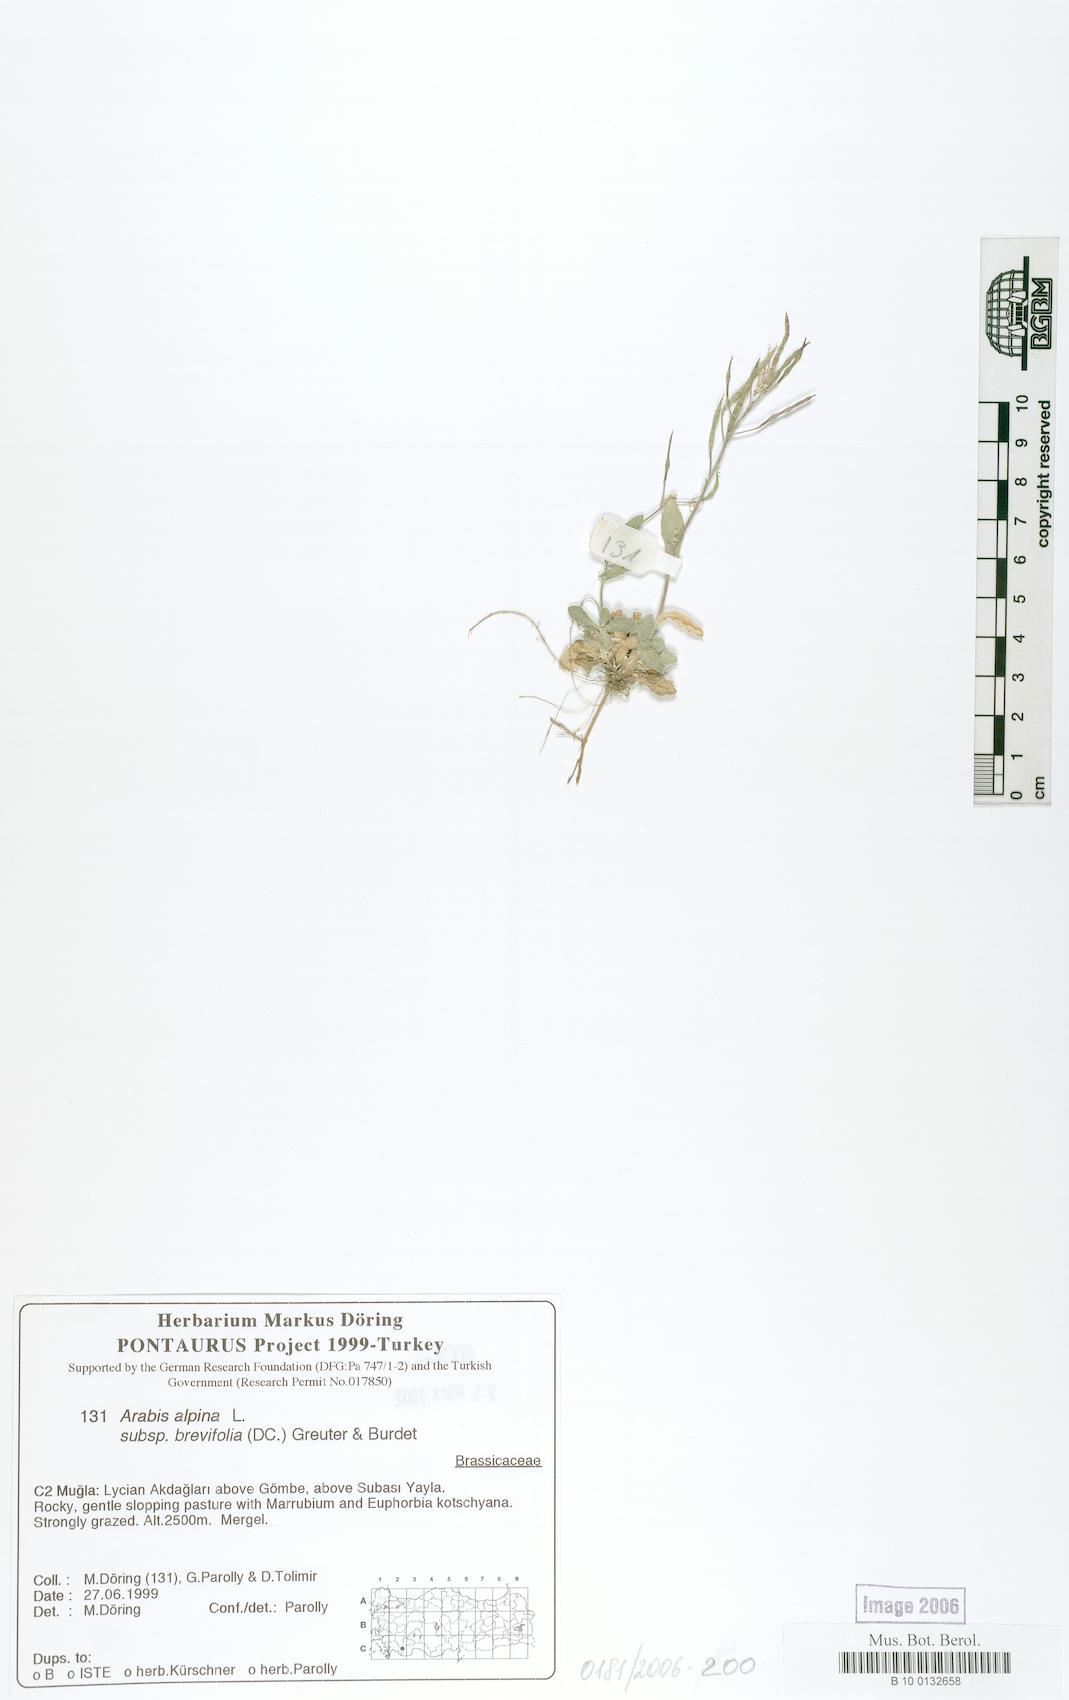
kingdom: Plantae
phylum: Tracheophyta
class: Magnoliopsida
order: Brassicales
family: Brassicaceae
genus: Arabis
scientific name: Arabis caucasica
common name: Gray rockcress
